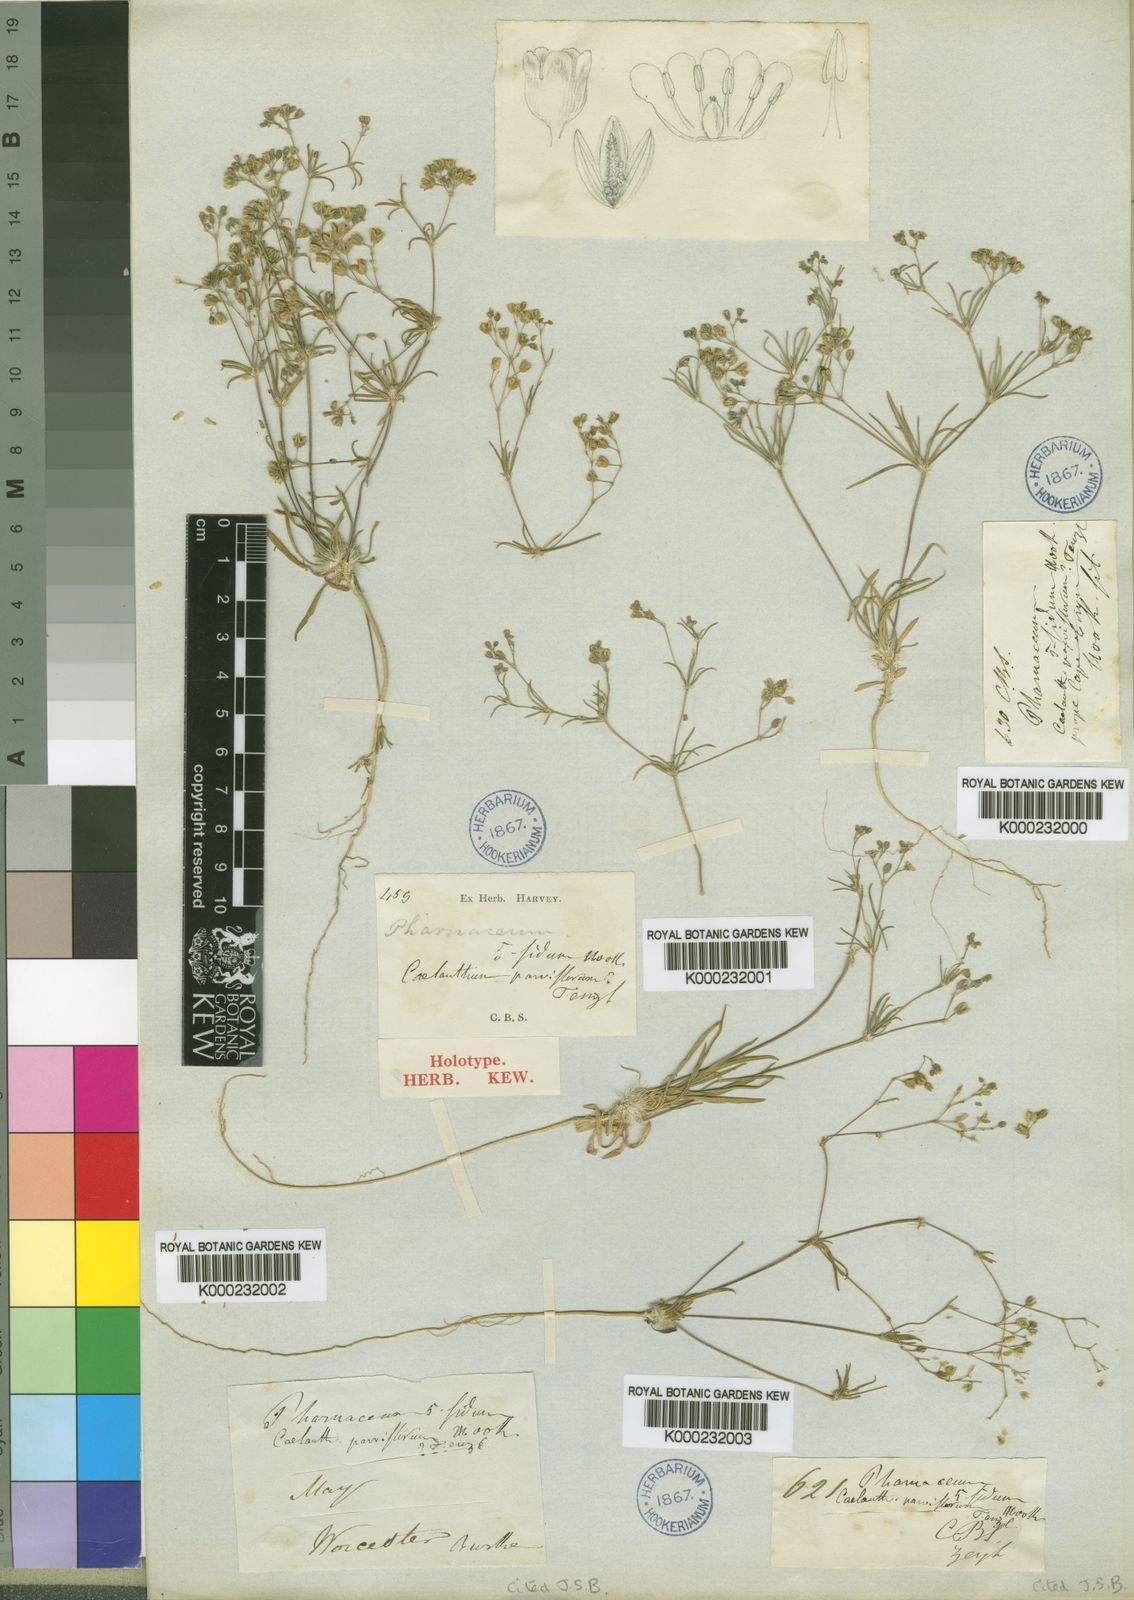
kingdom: Plantae
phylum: Tracheophyta
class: Magnoliopsida
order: Caryophyllales
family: Molluginaceae
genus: Coelanthum
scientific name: Coelanthum semiquinquefidum
